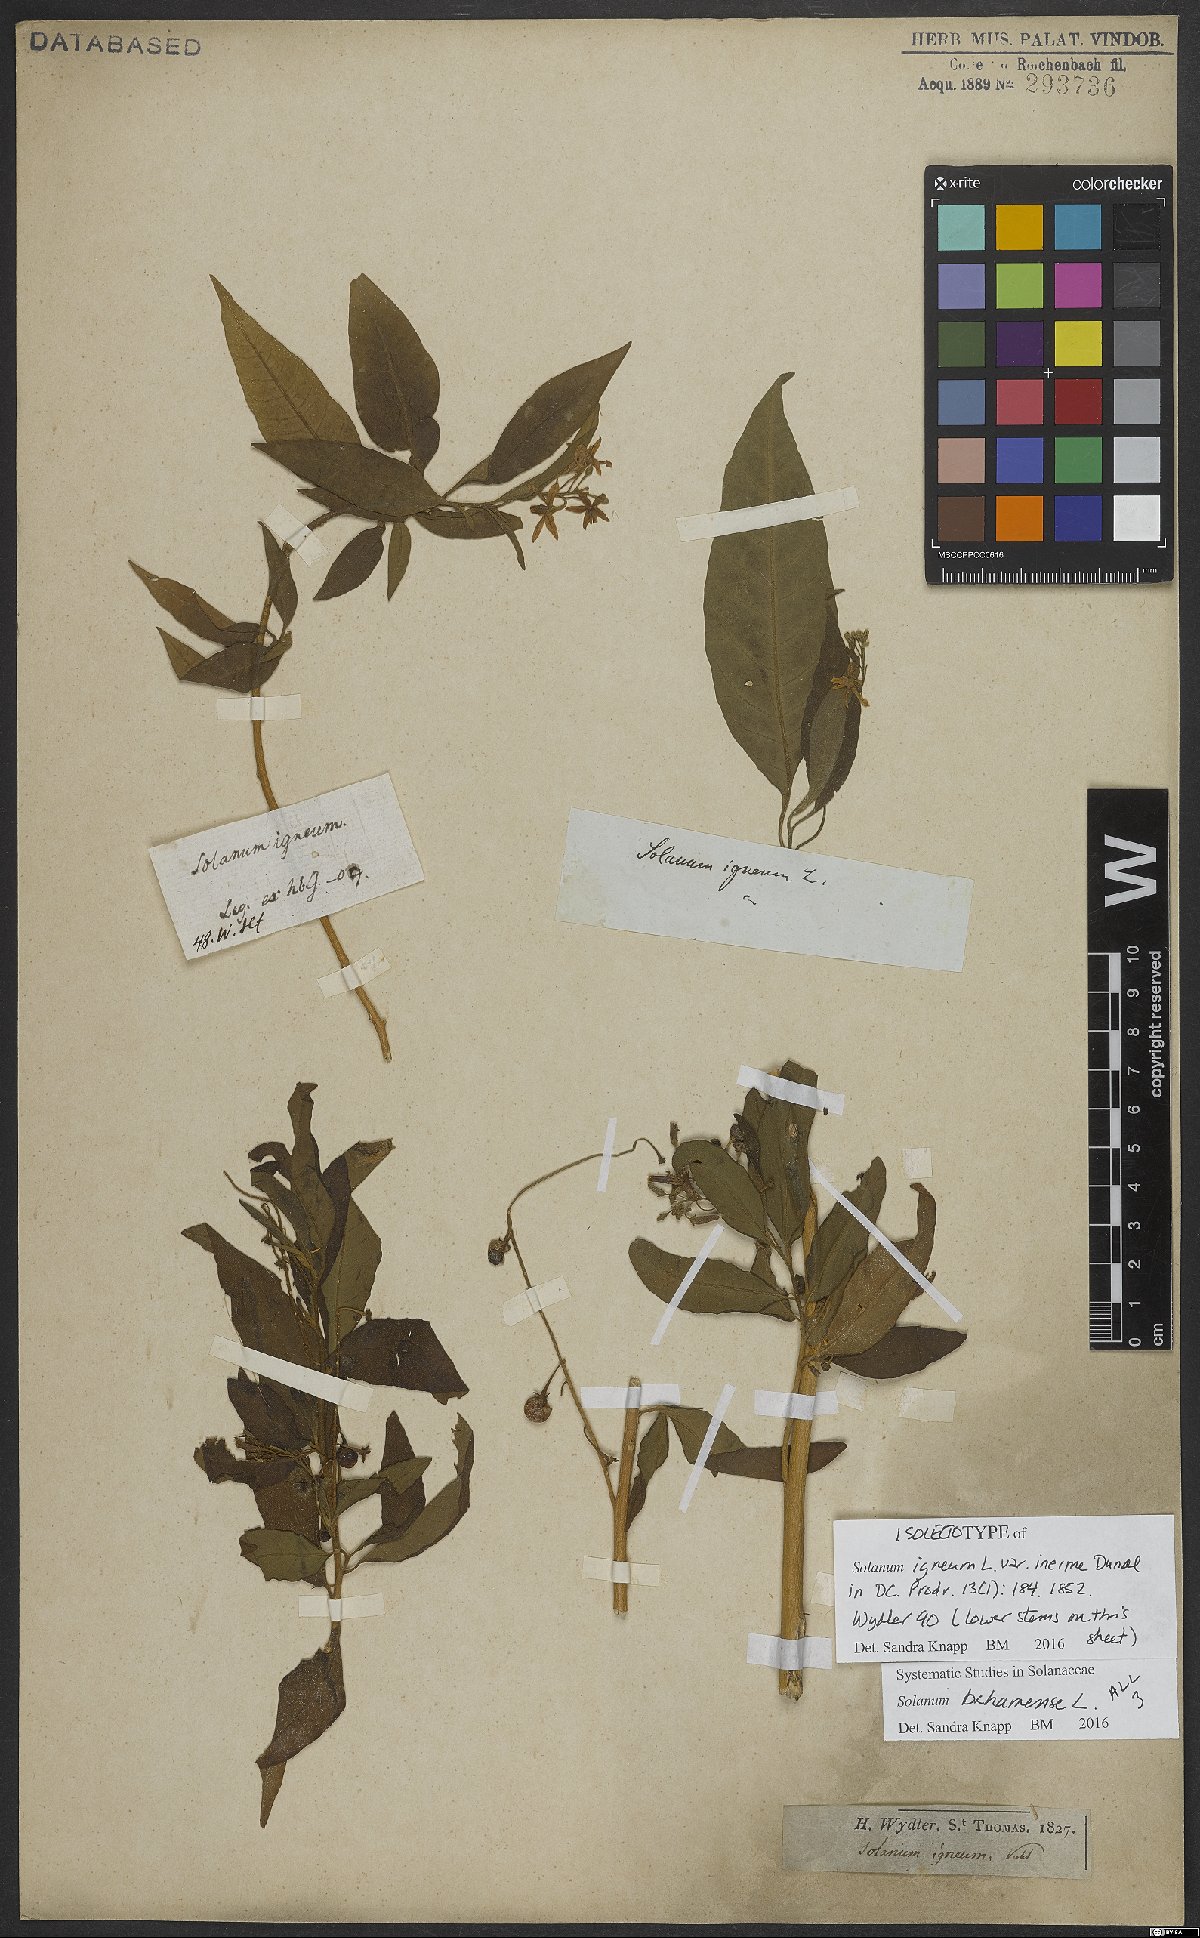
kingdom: Plantae
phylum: Tracheophyta
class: Magnoliopsida
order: Solanales
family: Solanaceae
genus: Solanum
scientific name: Solanum bahamense
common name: Canker-berry
